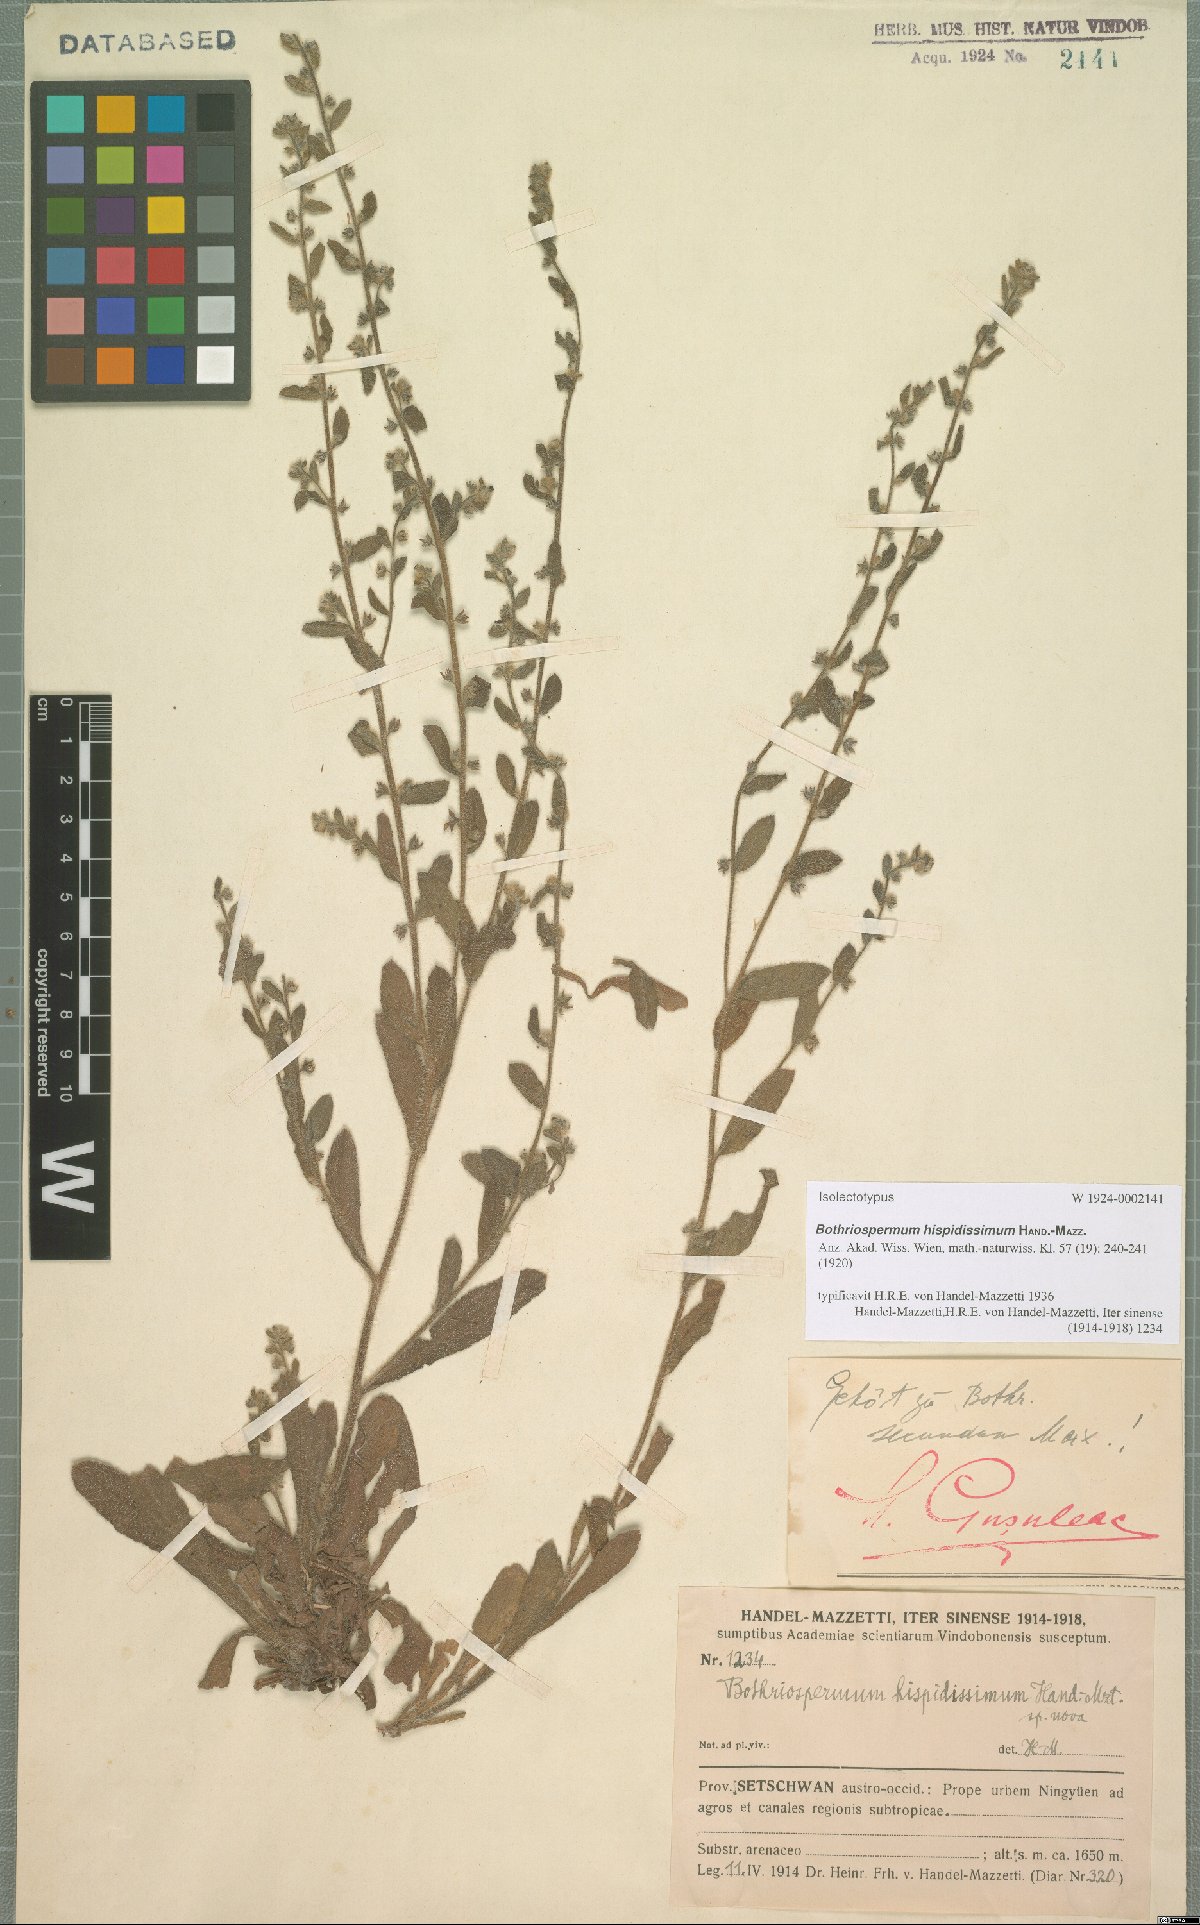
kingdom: Plantae
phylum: Tracheophyta
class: Magnoliopsida
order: Boraginales
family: Boraginaceae
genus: Bothriospermum
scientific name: Bothriospermum hispidissimum
